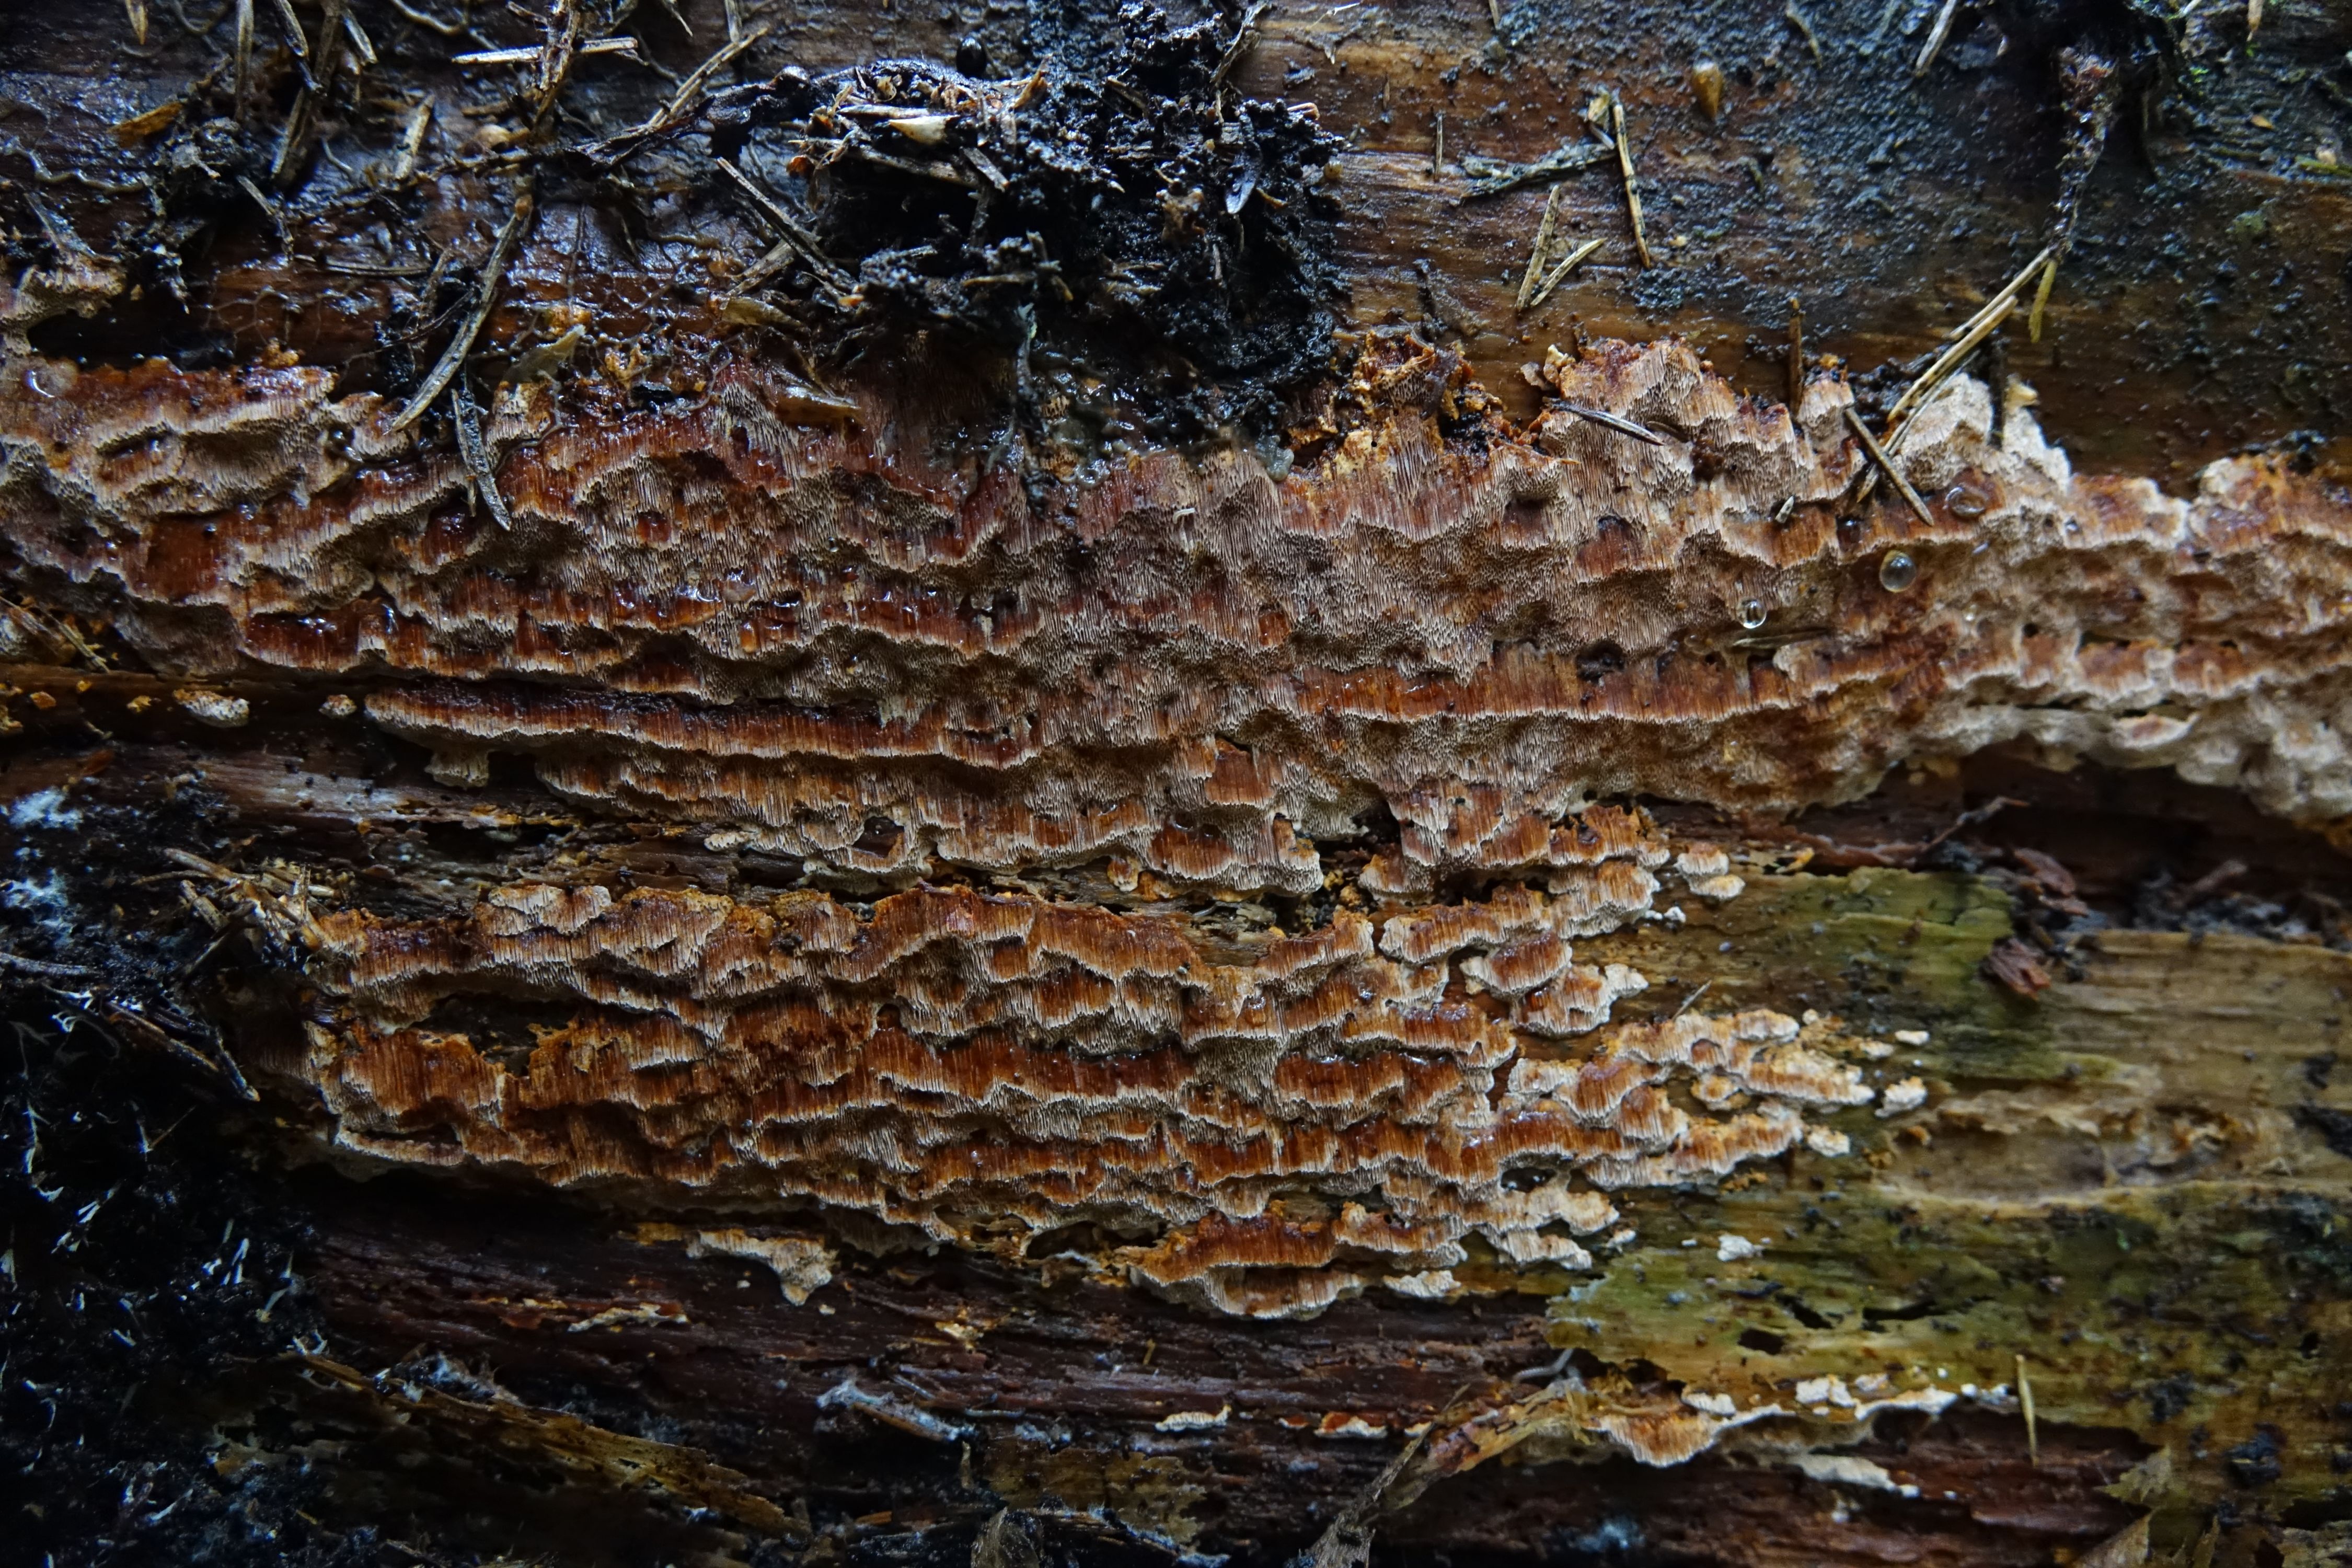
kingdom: Fungi
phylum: Basidiomycota
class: Agaricomycetes
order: Polyporales
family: Steccherinaceae
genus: Junghuhnia
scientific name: Junghuhnia collabens
